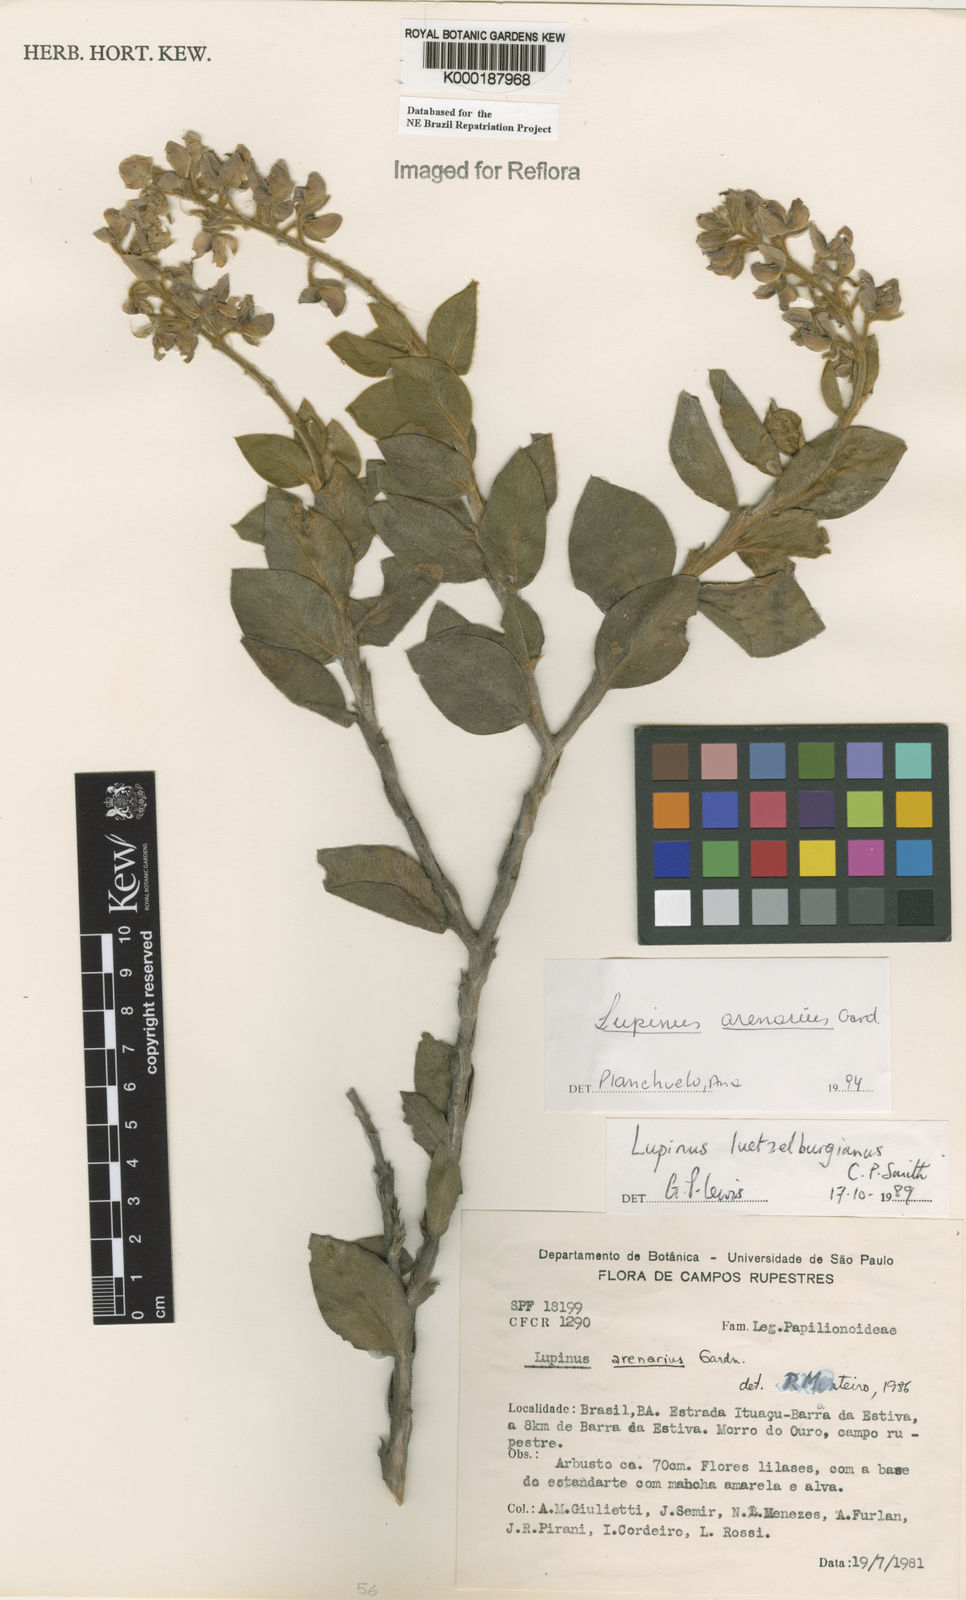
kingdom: Plantae
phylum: Tracheophyta
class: Magnoliopsida
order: Fabales
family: Fabaceae
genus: Lupinus
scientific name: Lupinus
